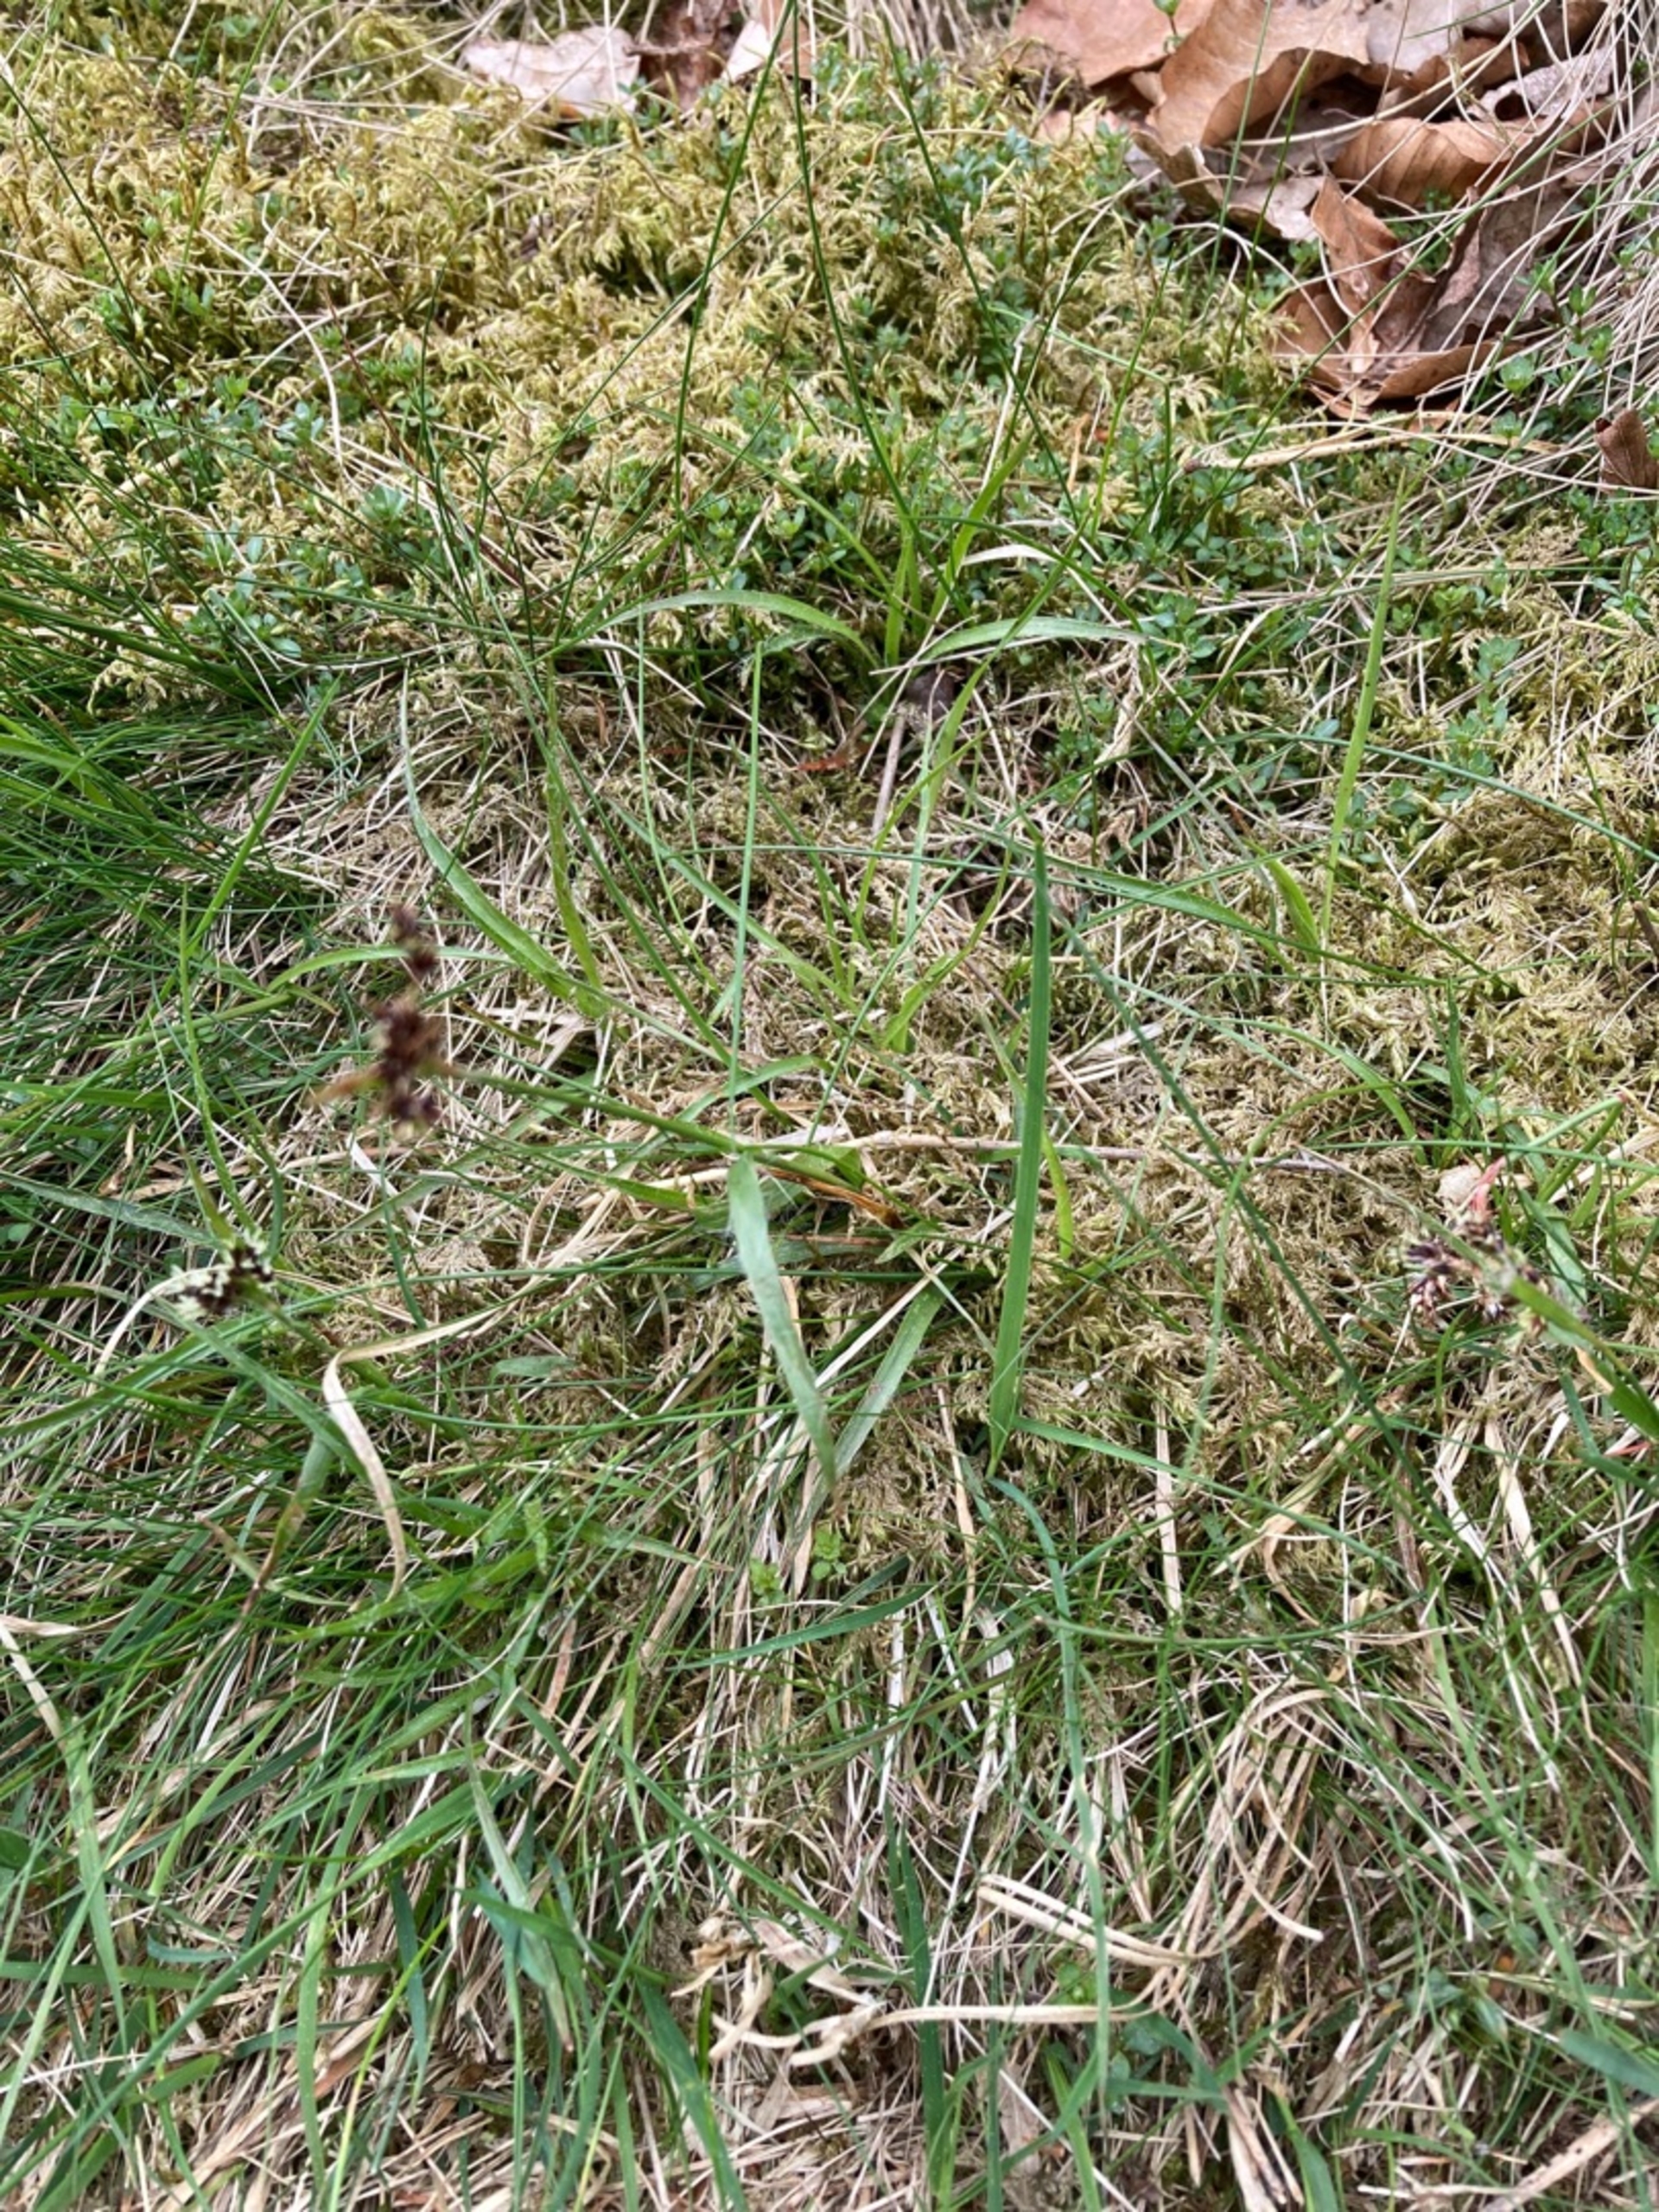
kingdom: Plantae
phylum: Tracheophyta
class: Liliopsida
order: Poales
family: Juncaceae
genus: Luzula
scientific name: Luzula campestris
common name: Mark-frytle
